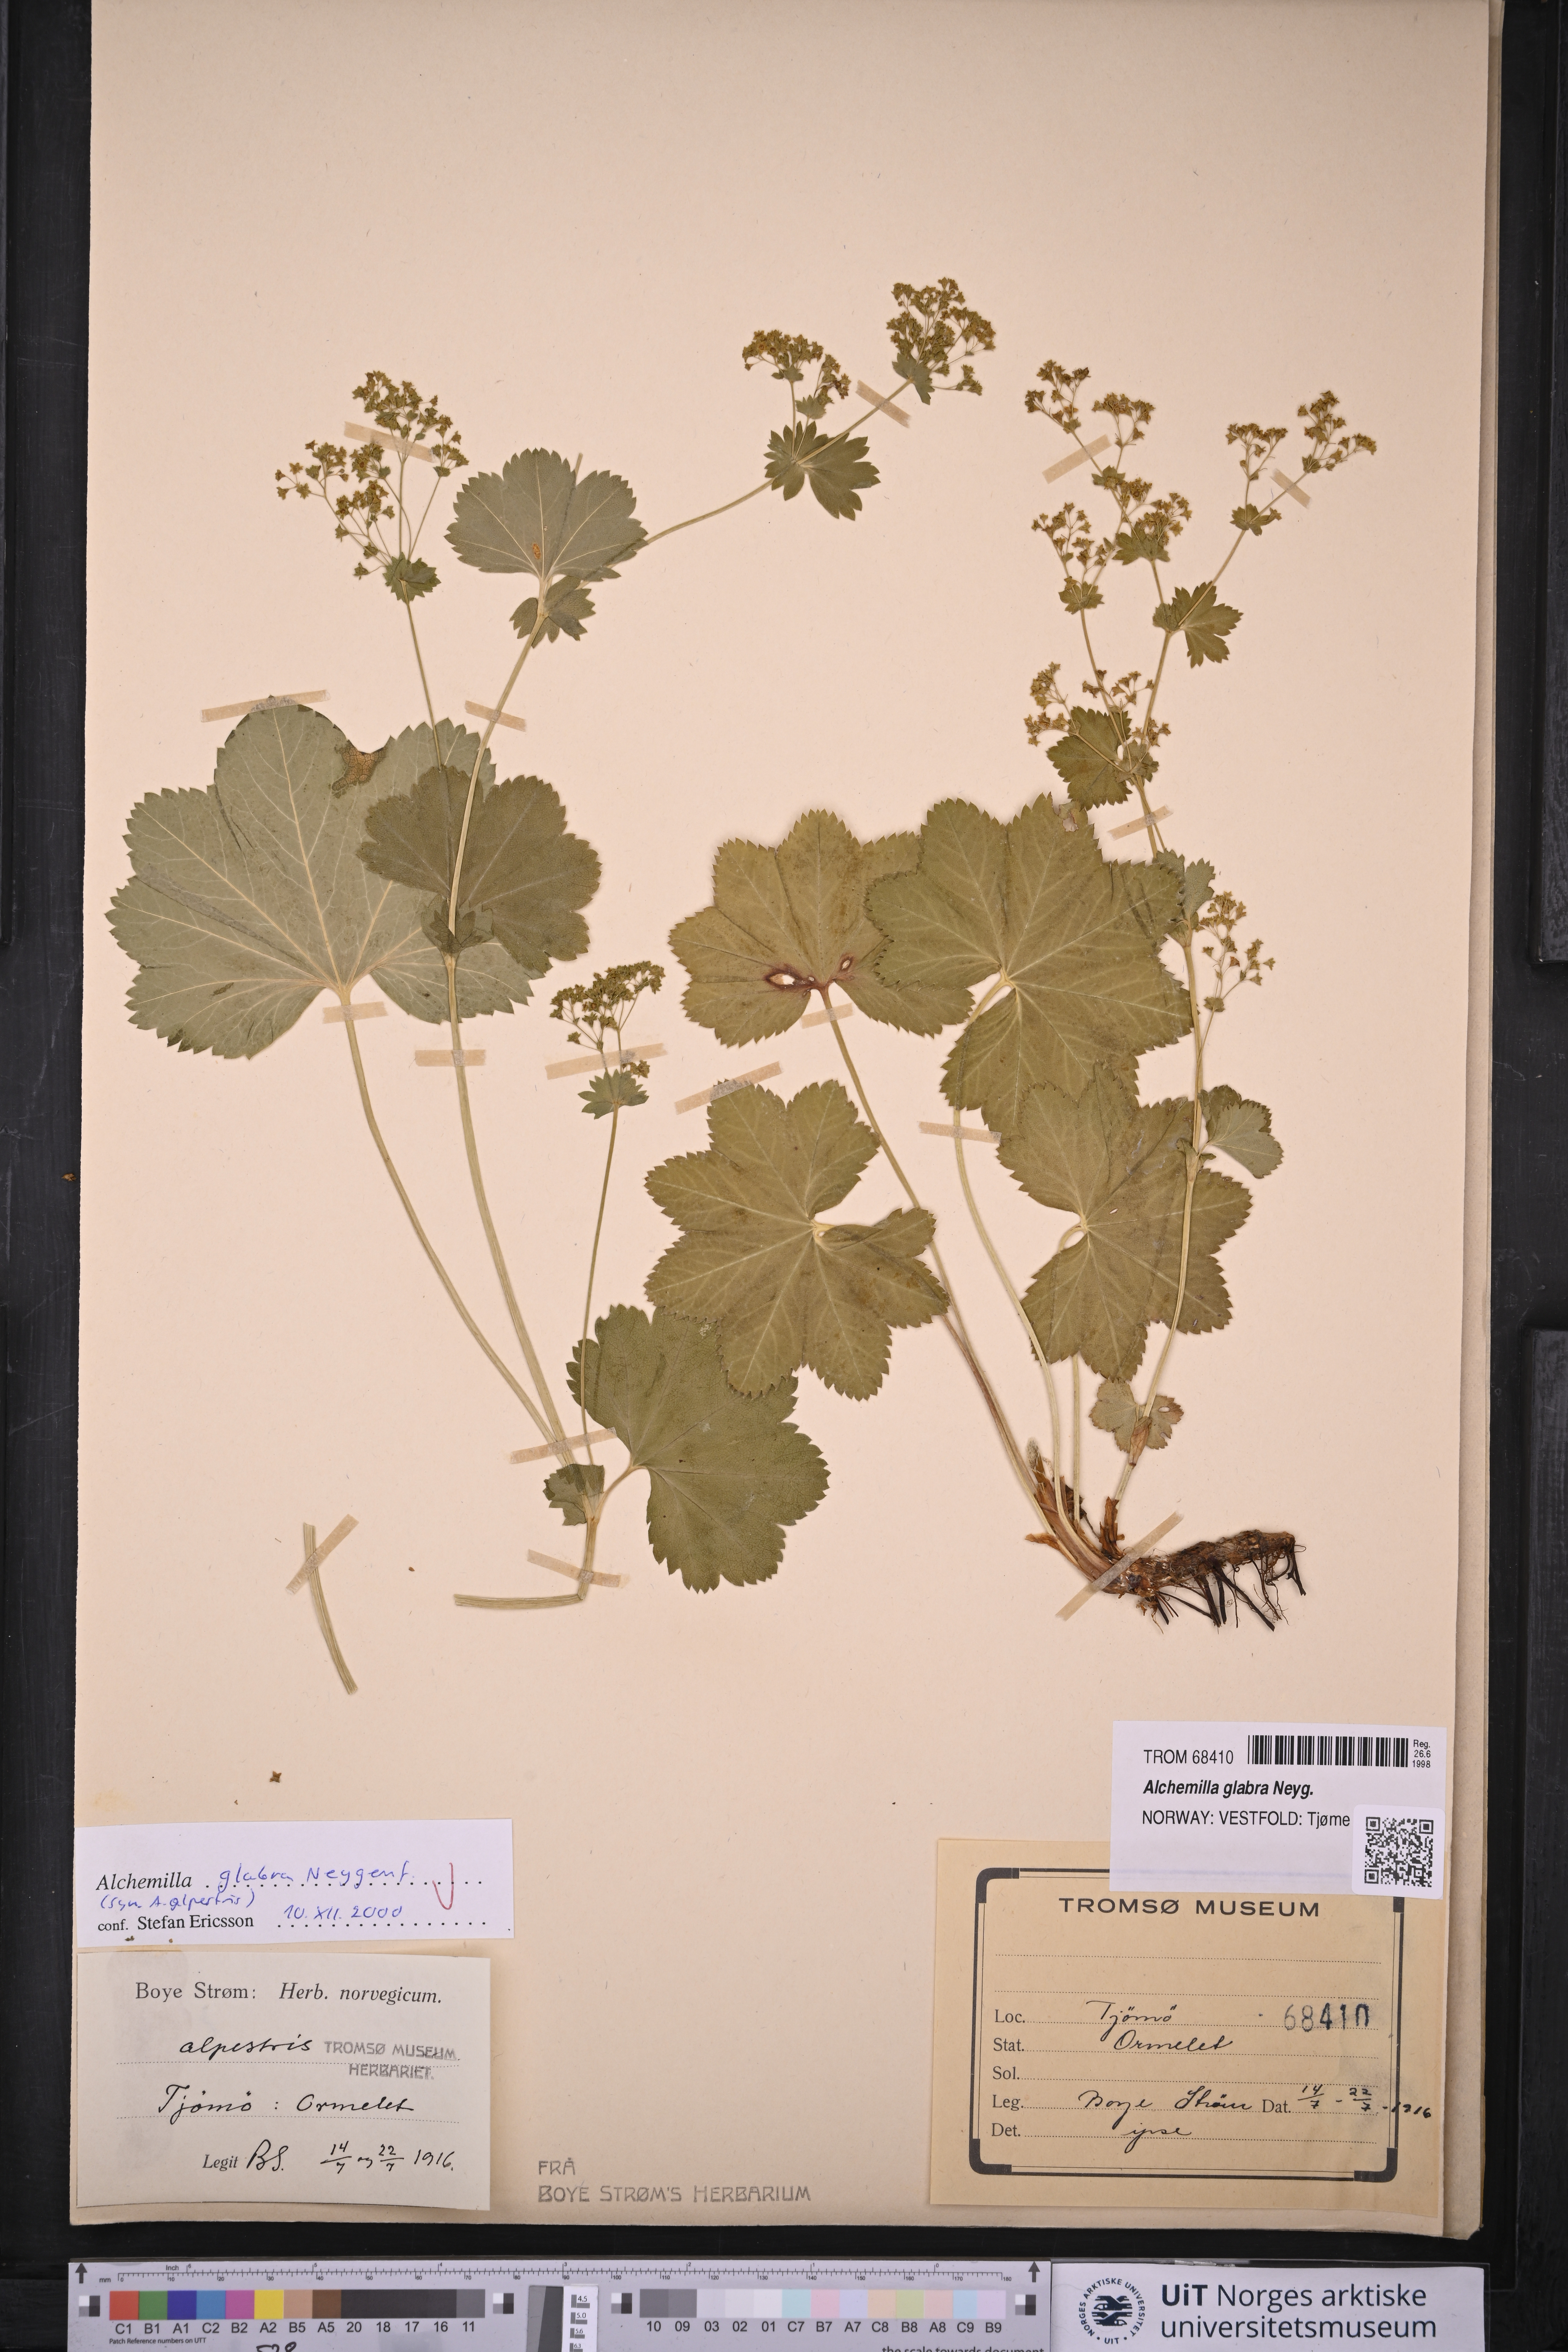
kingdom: Plantae
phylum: Tracheophyta
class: Magnoliopsida
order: Rosales
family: Rosaceae
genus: Alchemilla
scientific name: Alchemilla glabra
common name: Smooth lady's-mantle
